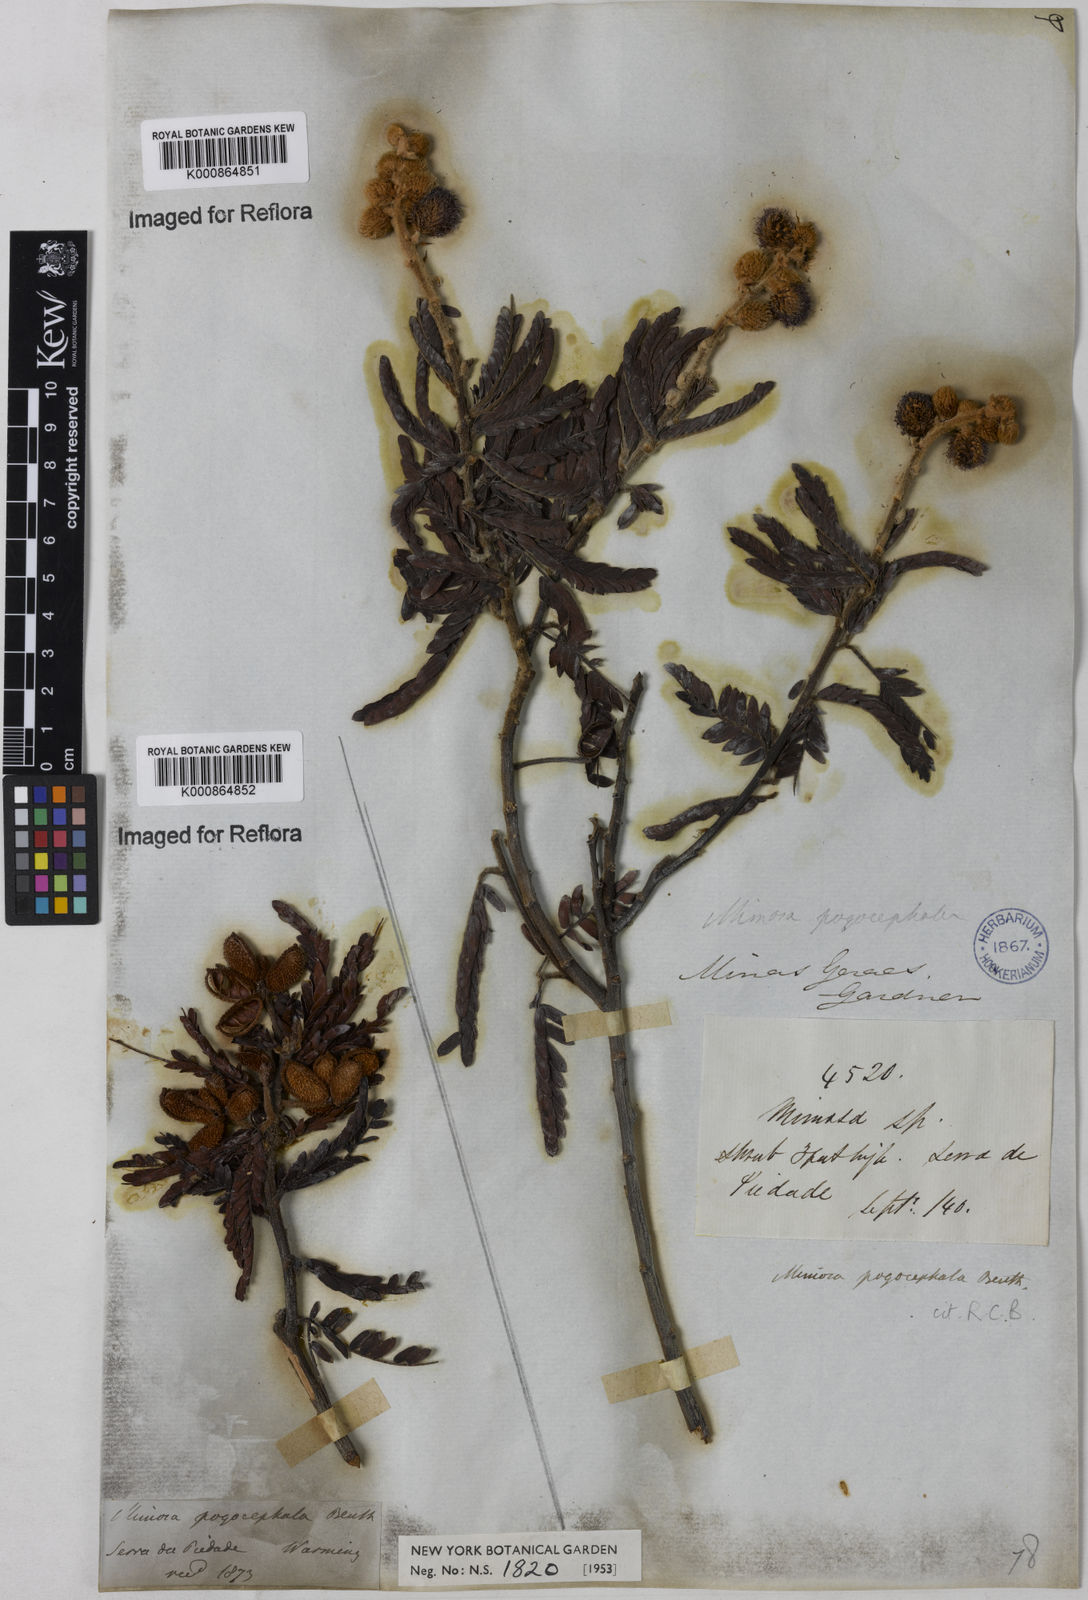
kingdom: Plantae
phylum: Tracheophyta
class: Magnoliopsida
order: Fabales
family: Fabaceae
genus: Mimosa
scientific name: Mimosa pogocephala
